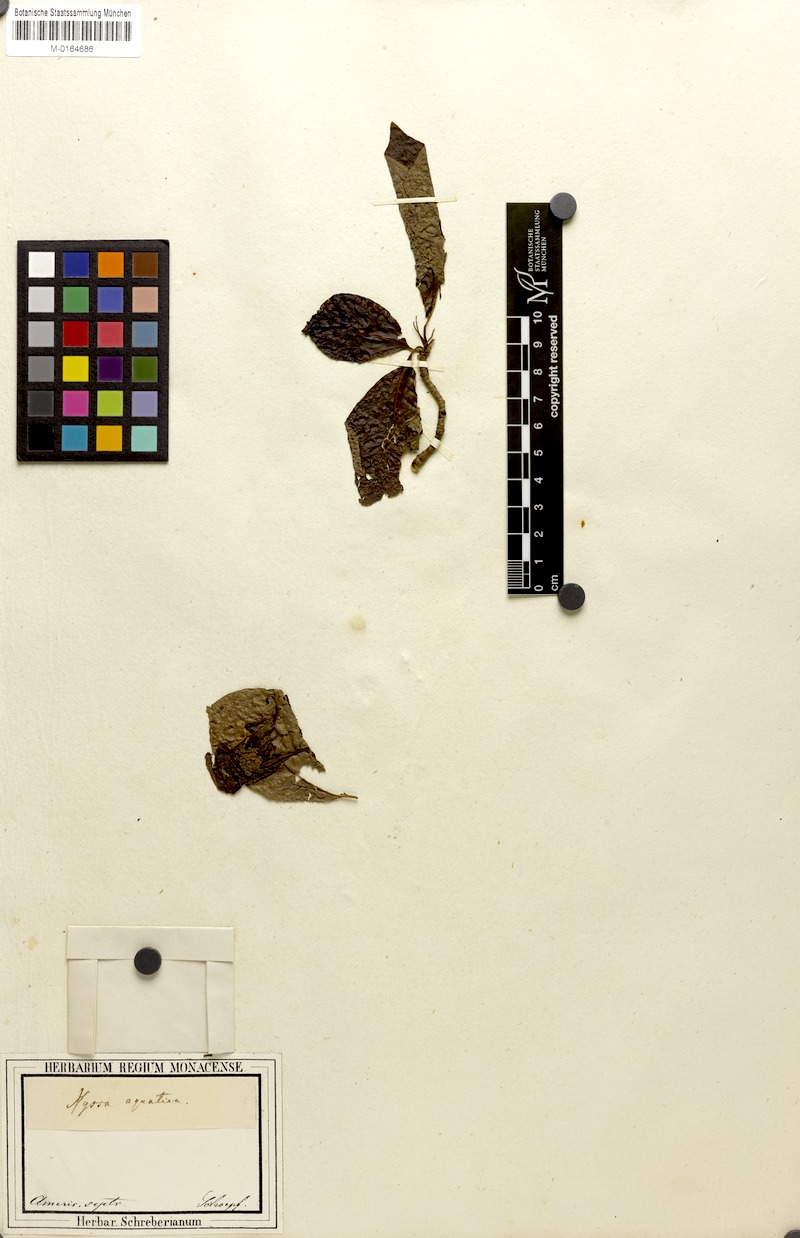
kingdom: Plantae
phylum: Tracheophyta
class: Magnoliopsida
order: Cornales
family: Nyssaceae
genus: Nyssa
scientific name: Nyssa aquatica
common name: Swamp tupelo
